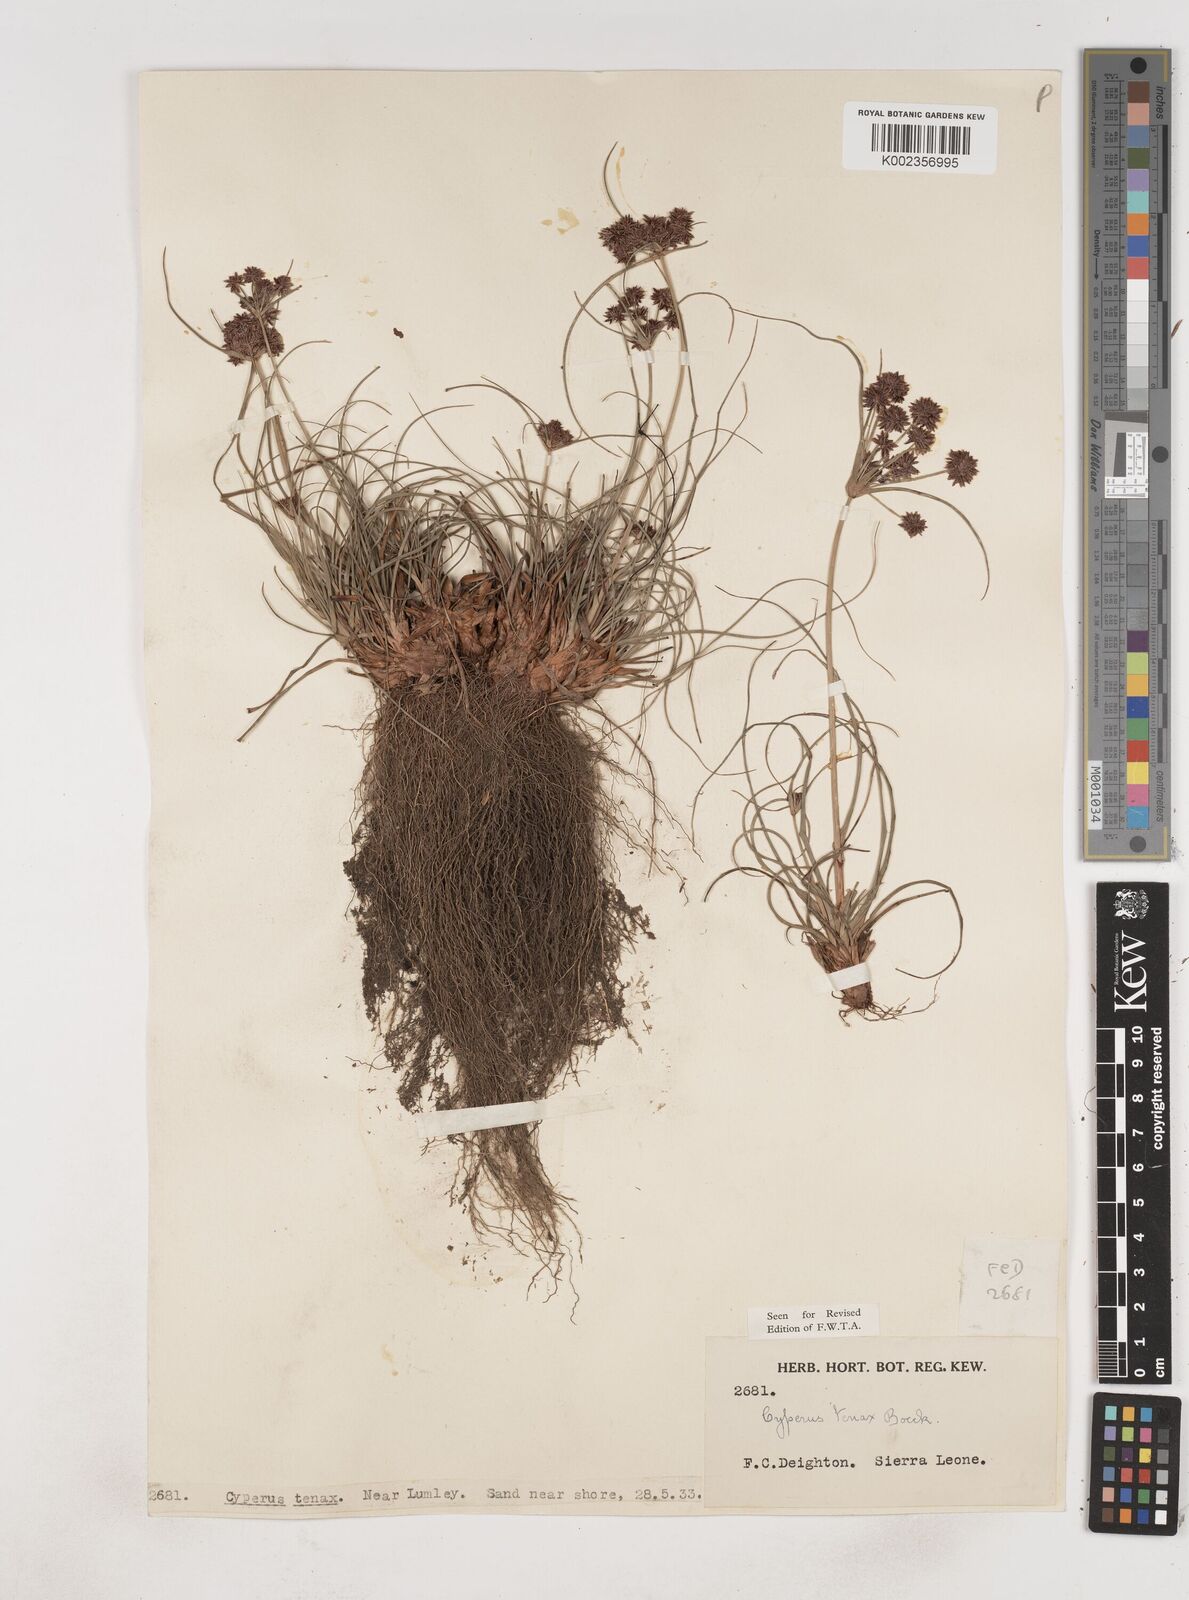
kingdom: Plantae
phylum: Tracheophyta
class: Liliopsida
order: Poales
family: Cyperaceae
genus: Cyperus
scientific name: Cyperus tenax
